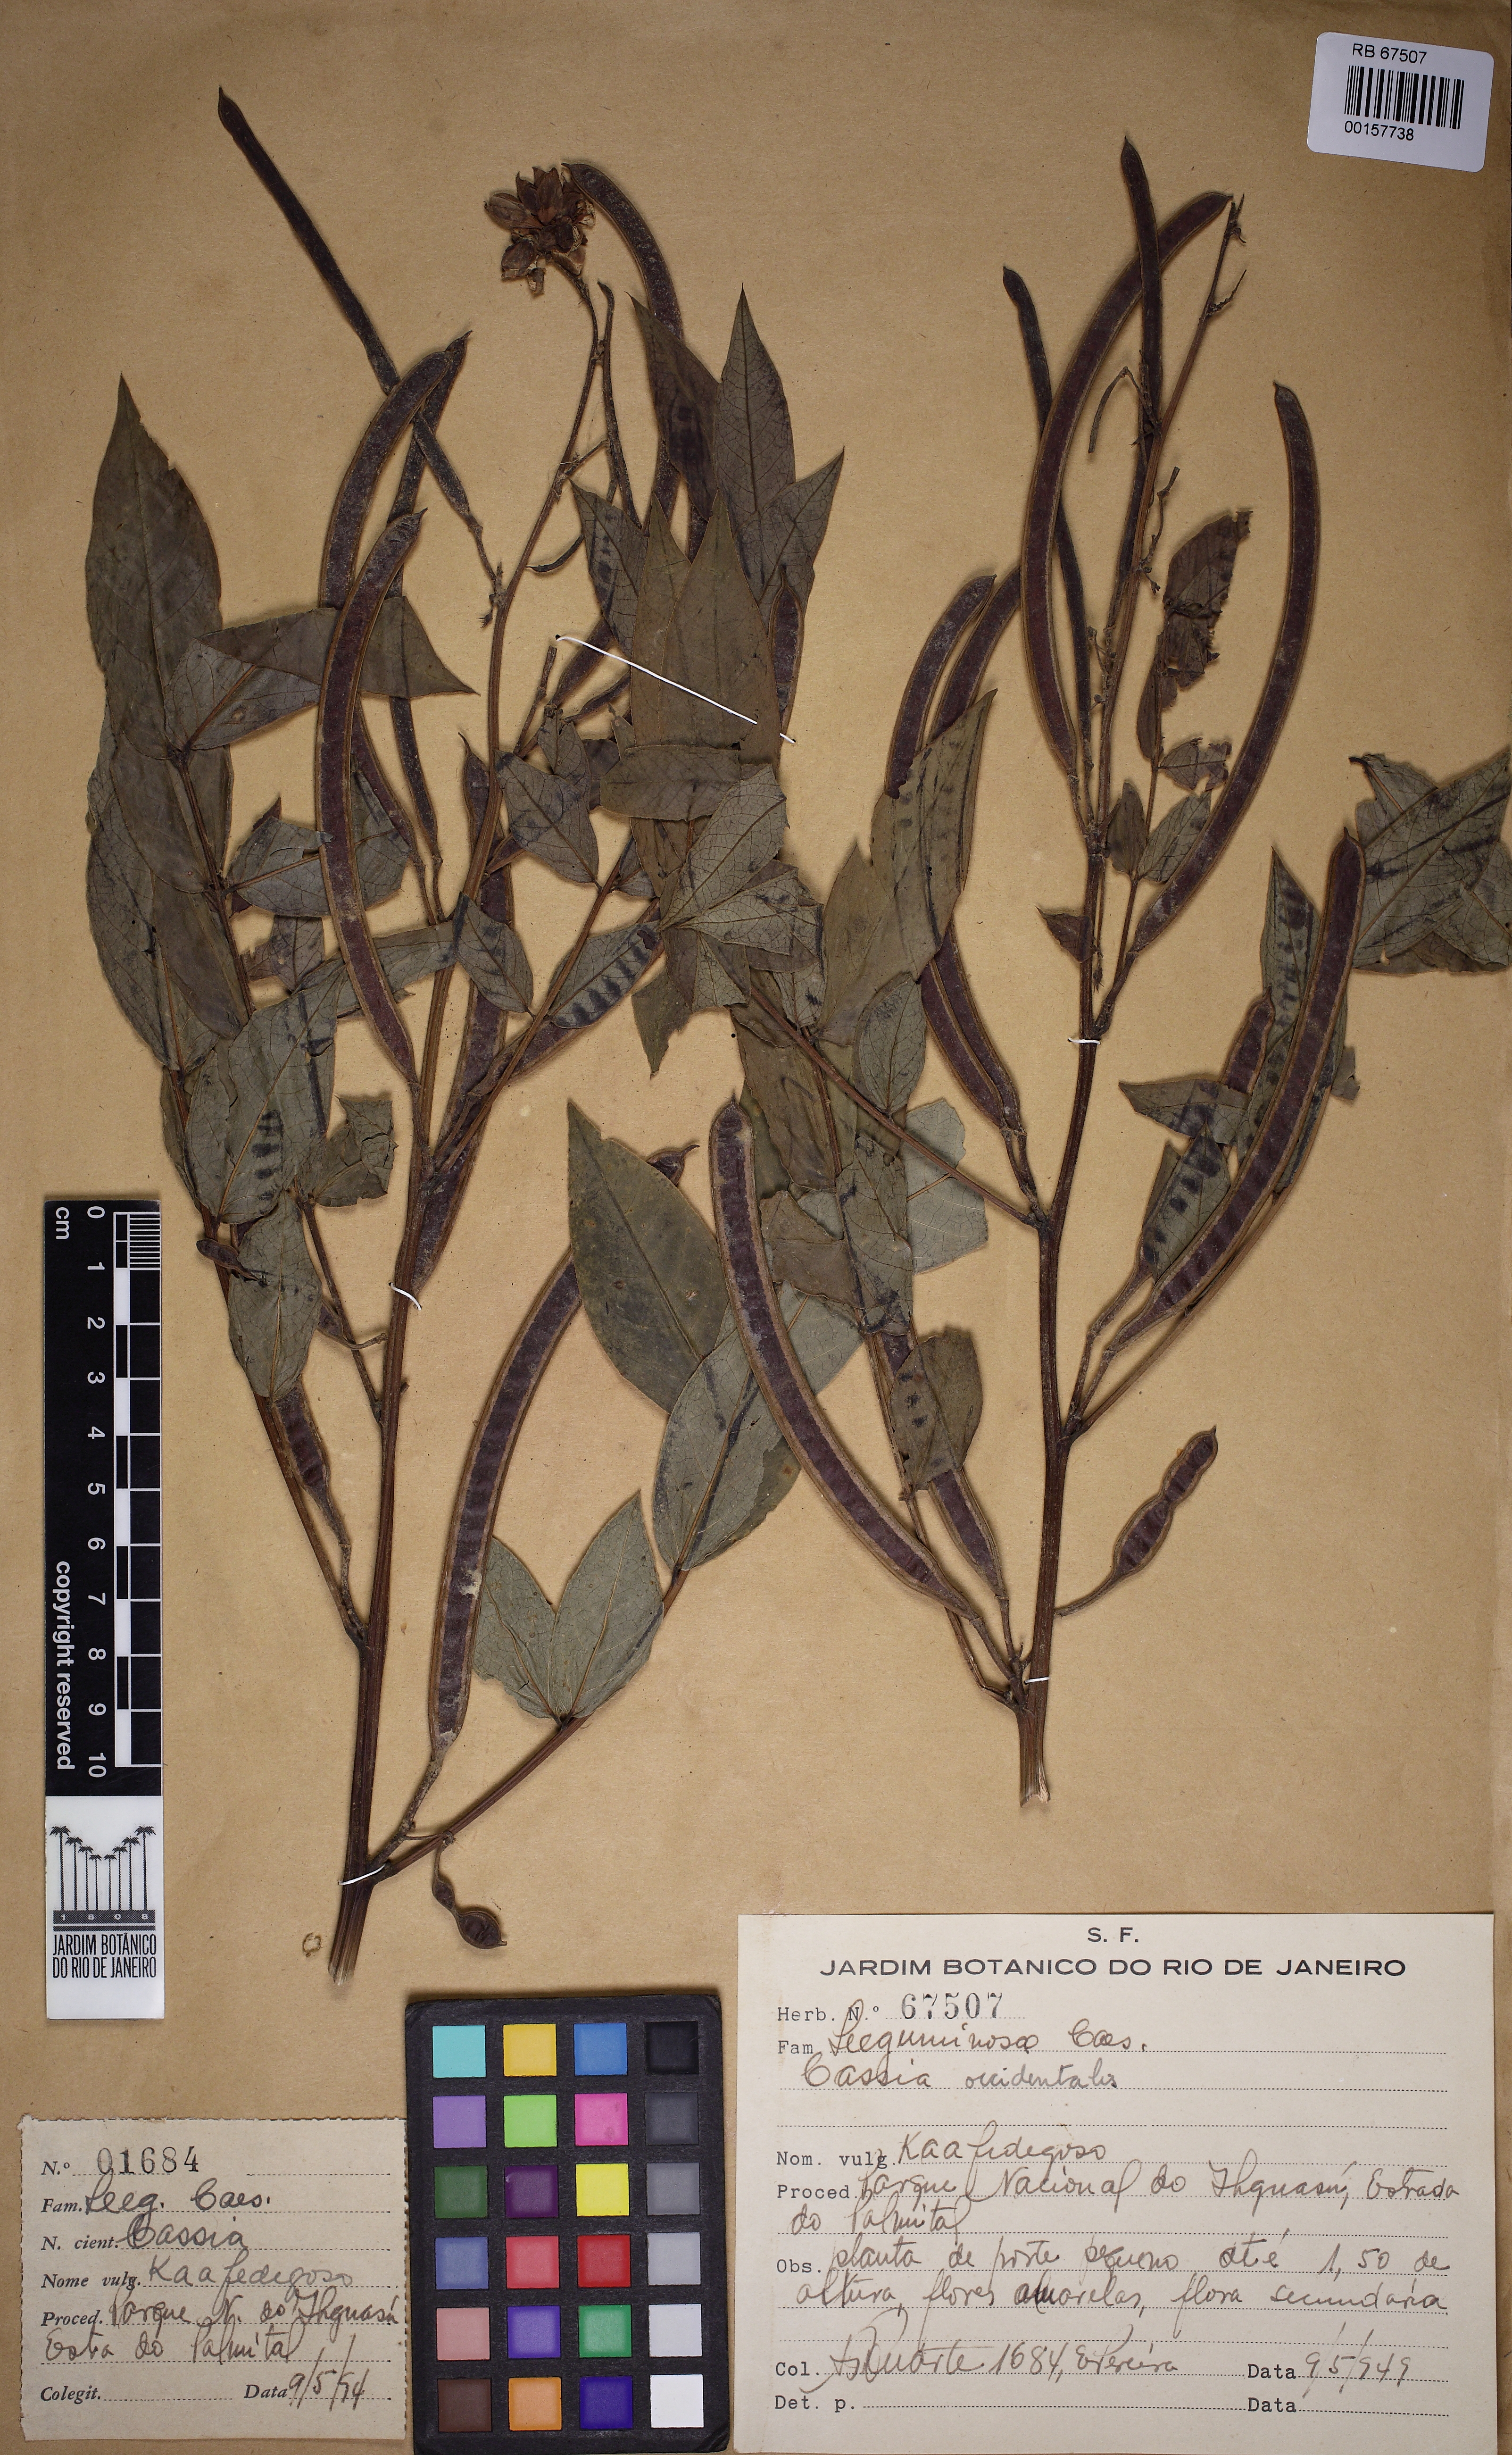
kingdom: Plantae
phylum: Tracheophyta
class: Magnoliopsida
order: Fabales
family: Fabaceae
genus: Senna
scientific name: Senna occidentalis
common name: Septicweed
